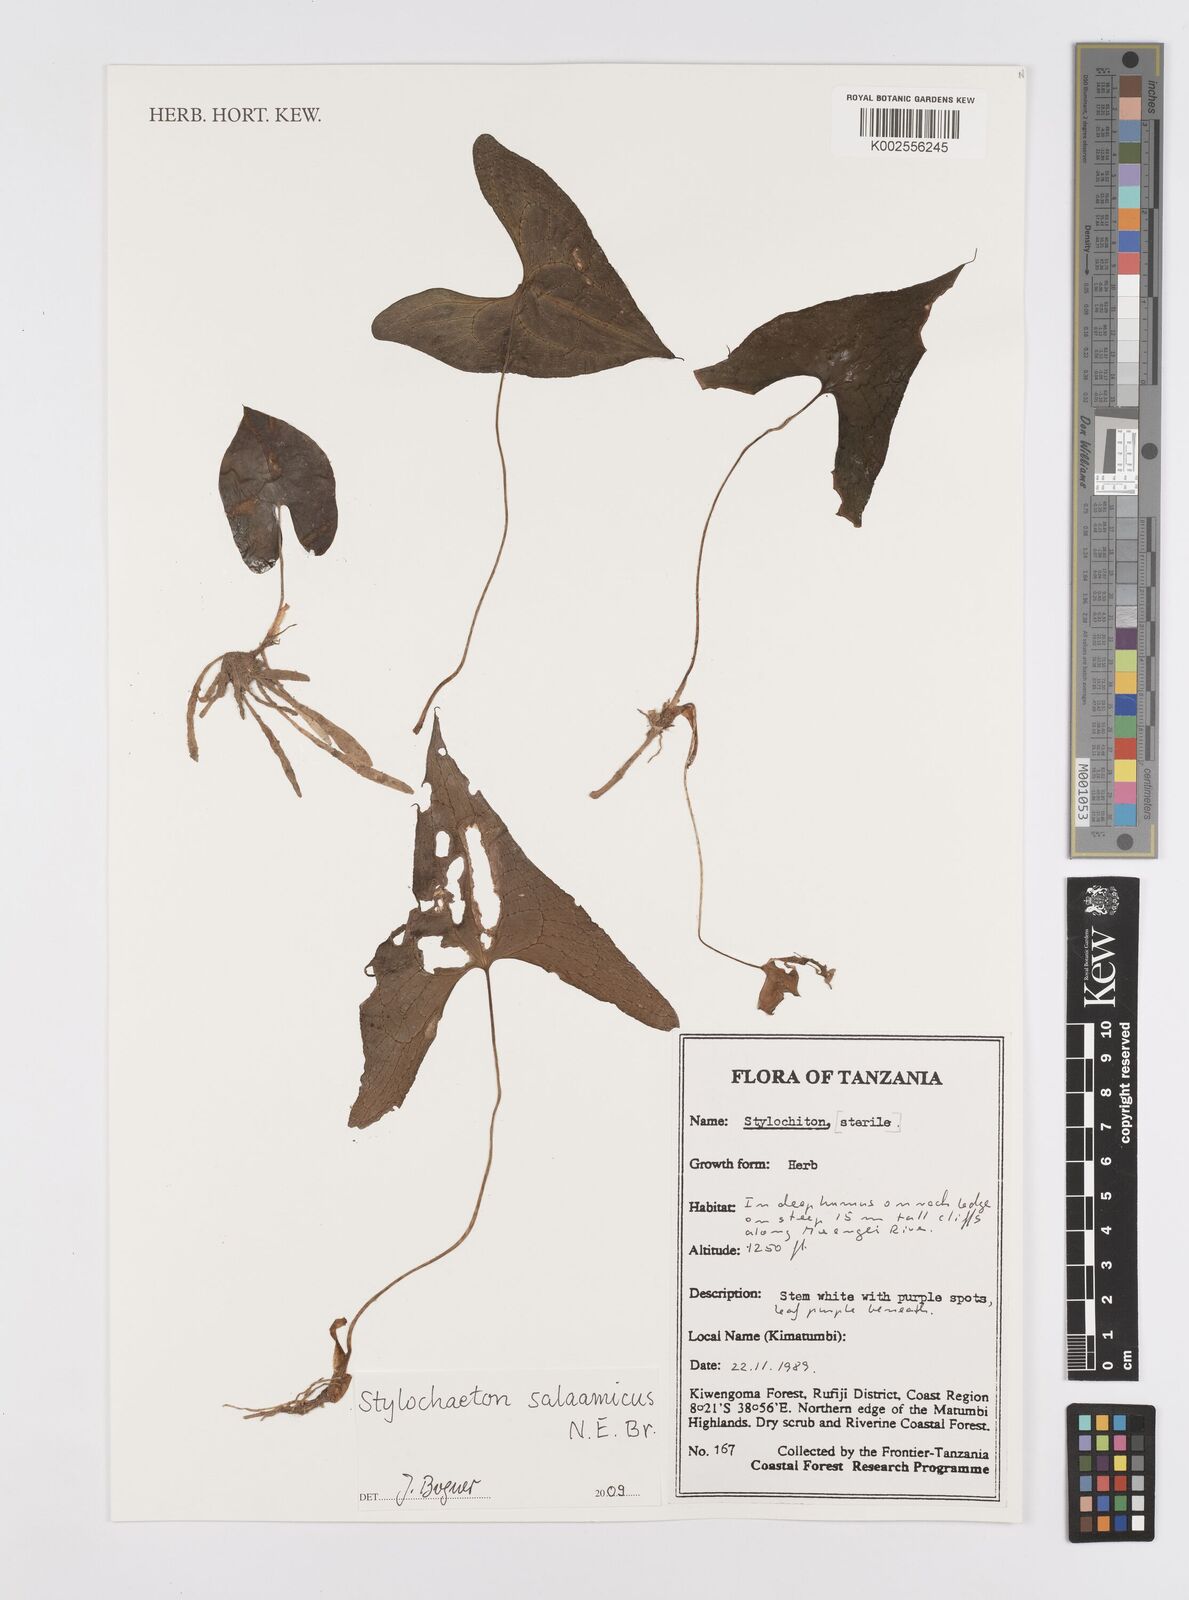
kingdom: Plantae
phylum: Tracheophyta
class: Liliopsida
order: Alismatales
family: Araceae
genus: Stylochaeton
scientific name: Stylochaeton salaamicum
